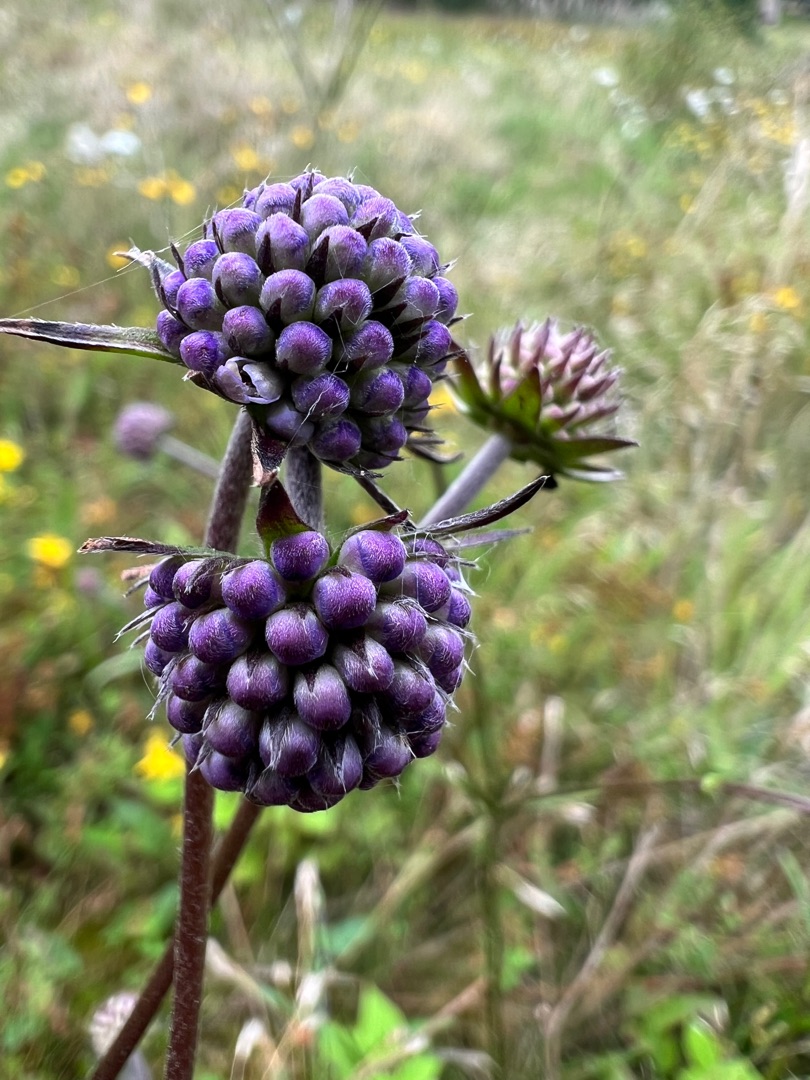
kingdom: Plantae
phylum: Tracheophyta
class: Magnoliopsida
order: Dipsacales
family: Caprifoliaceae
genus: Succisa
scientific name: Succisa pratensis
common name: Djævelsbid
